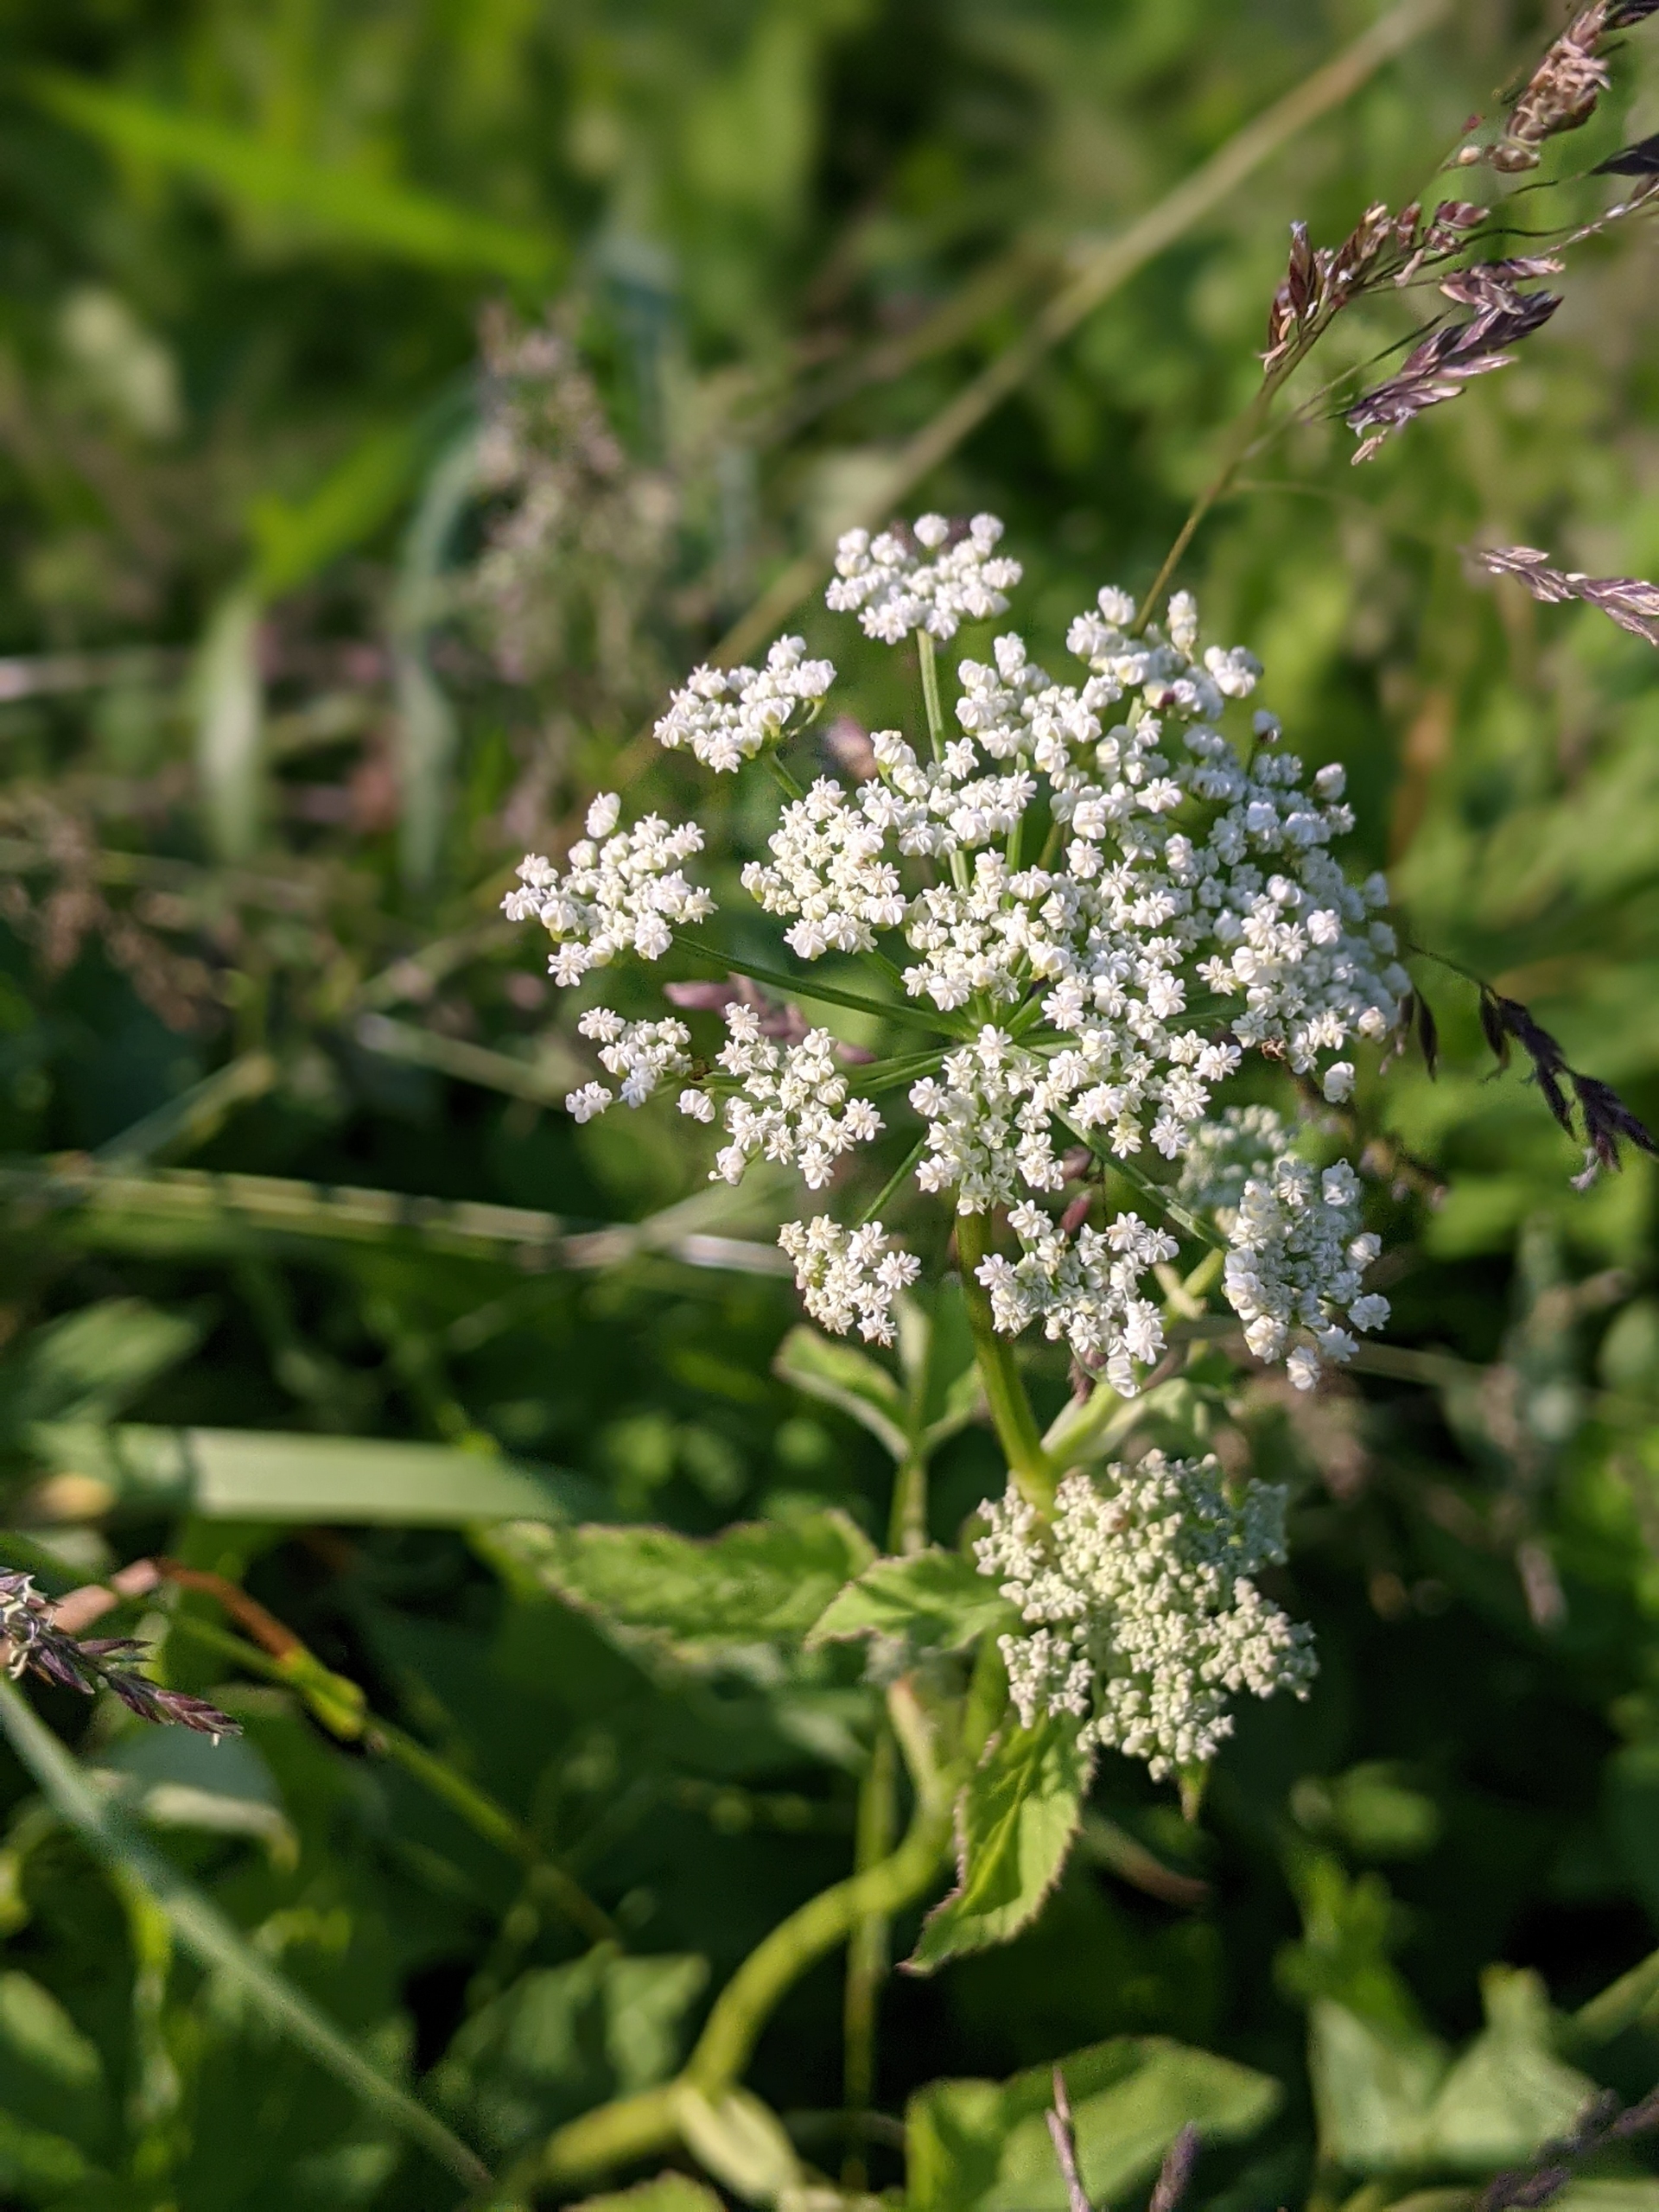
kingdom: Plantae
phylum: Tracheophyta
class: Magnoliopsida
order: Apiales
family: Apiaceae
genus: Aegopodium
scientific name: Aegopodium podagraria
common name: Skvalderkål
